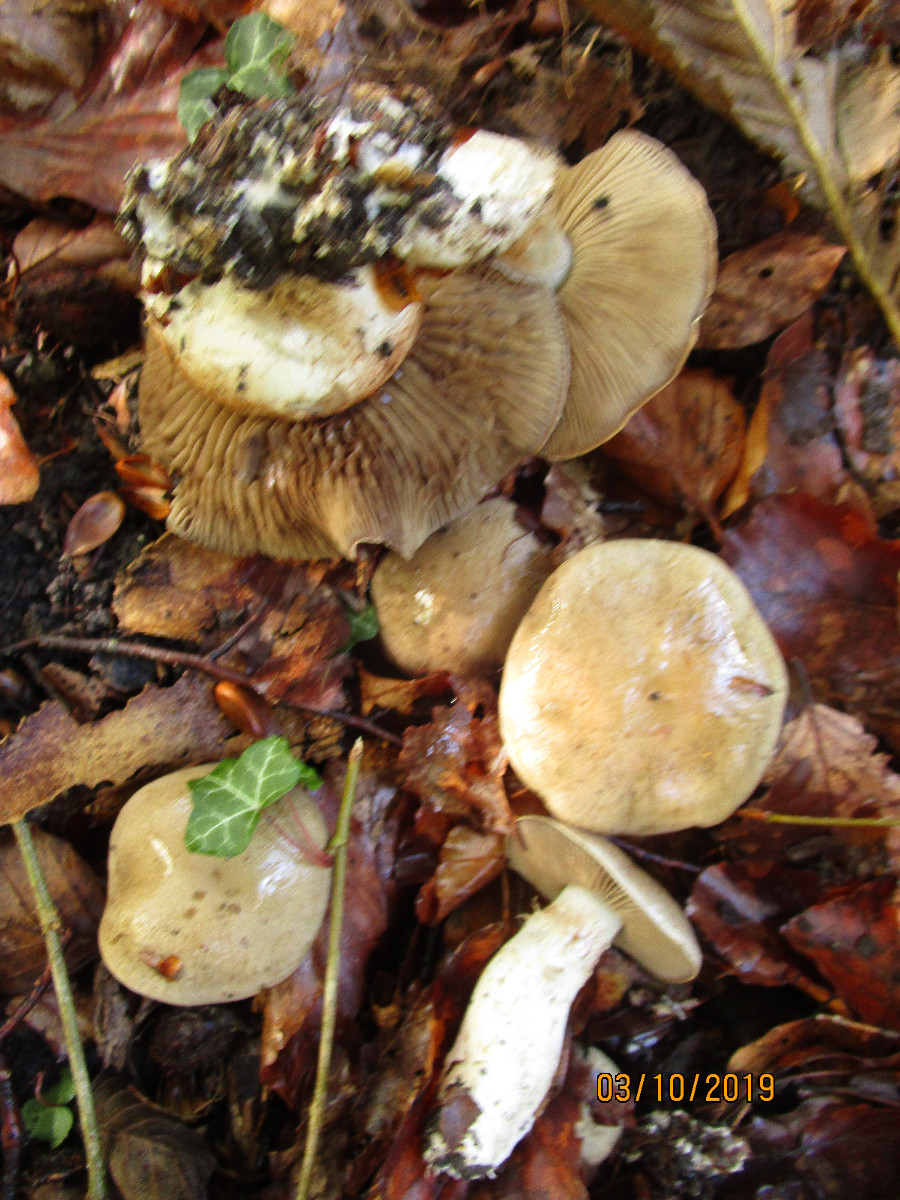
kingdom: Fungi
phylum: Basidiomycota
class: Agaricomycetes
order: Agaricales
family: Cortinariaceae
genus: Cortinarius
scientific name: Cortinarius
